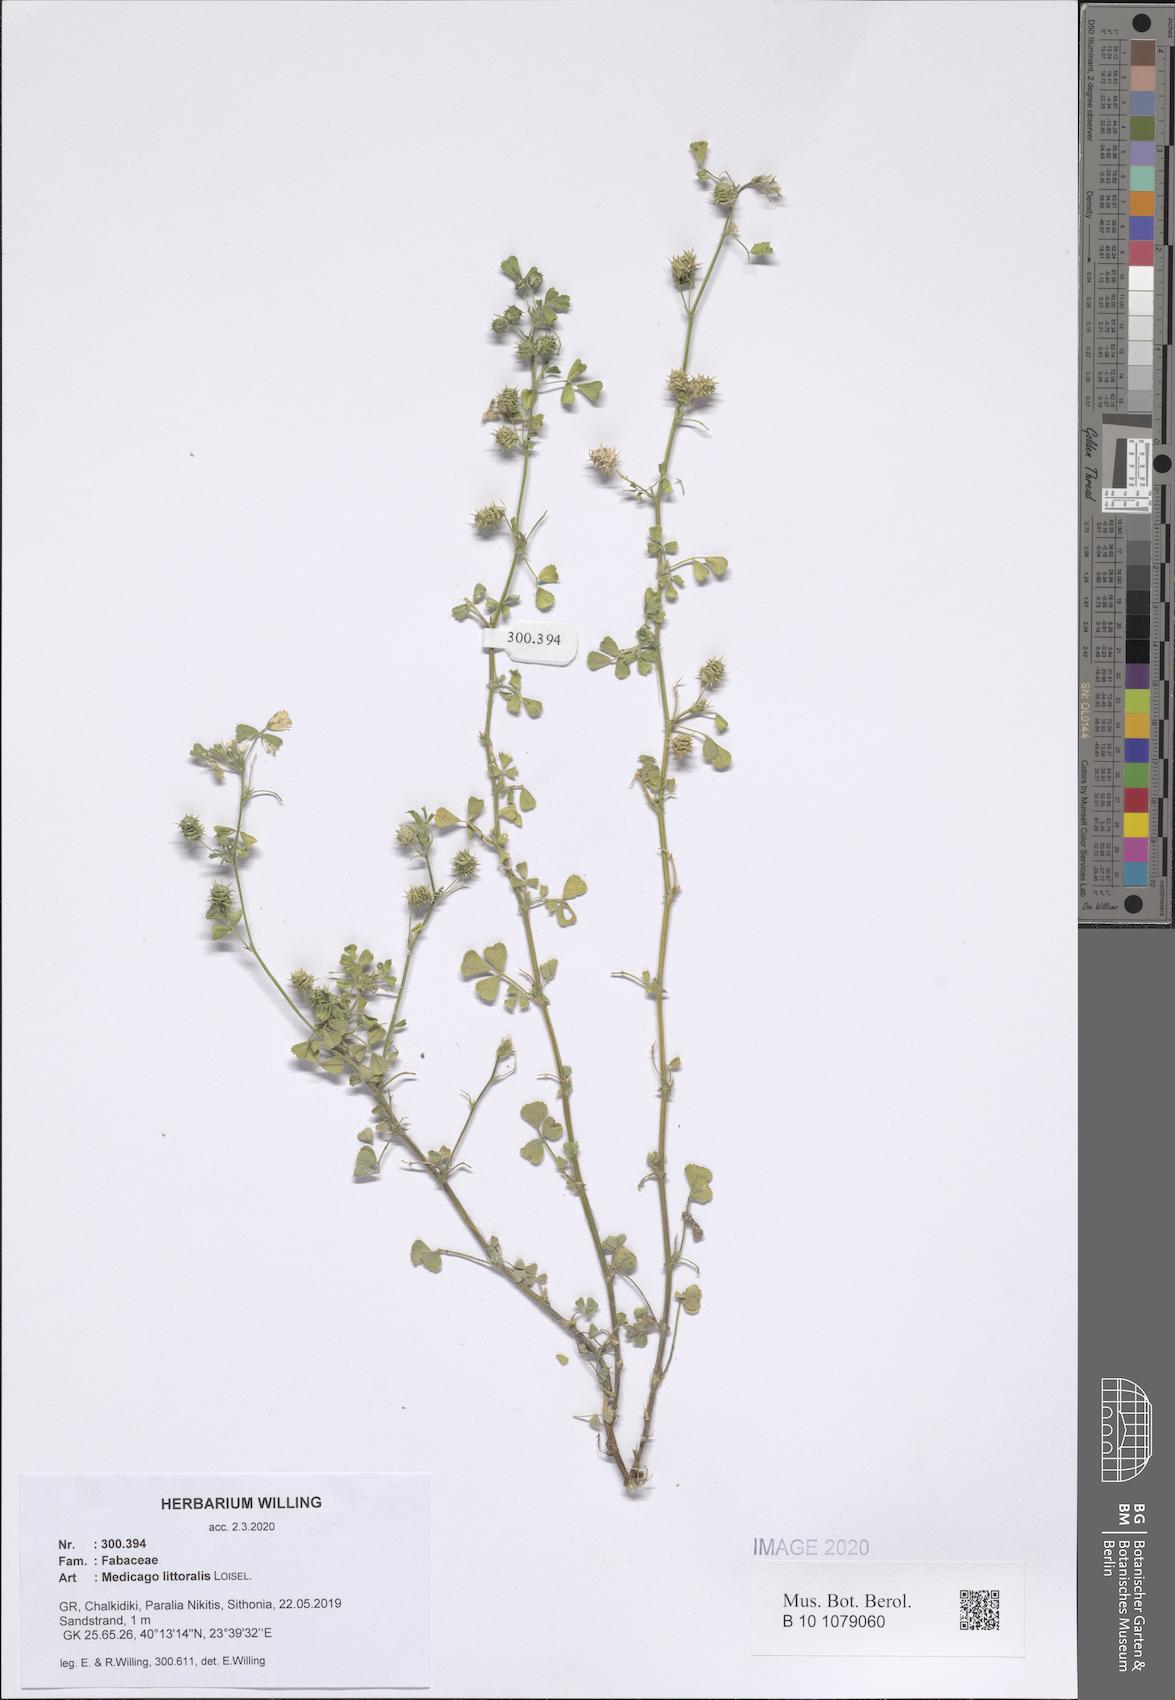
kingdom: Plantae
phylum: Tracheophyta
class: Magnoliopsida
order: Fabales
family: Fabaceae
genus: Medicago
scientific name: Medicago littoralis
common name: Shore medick
